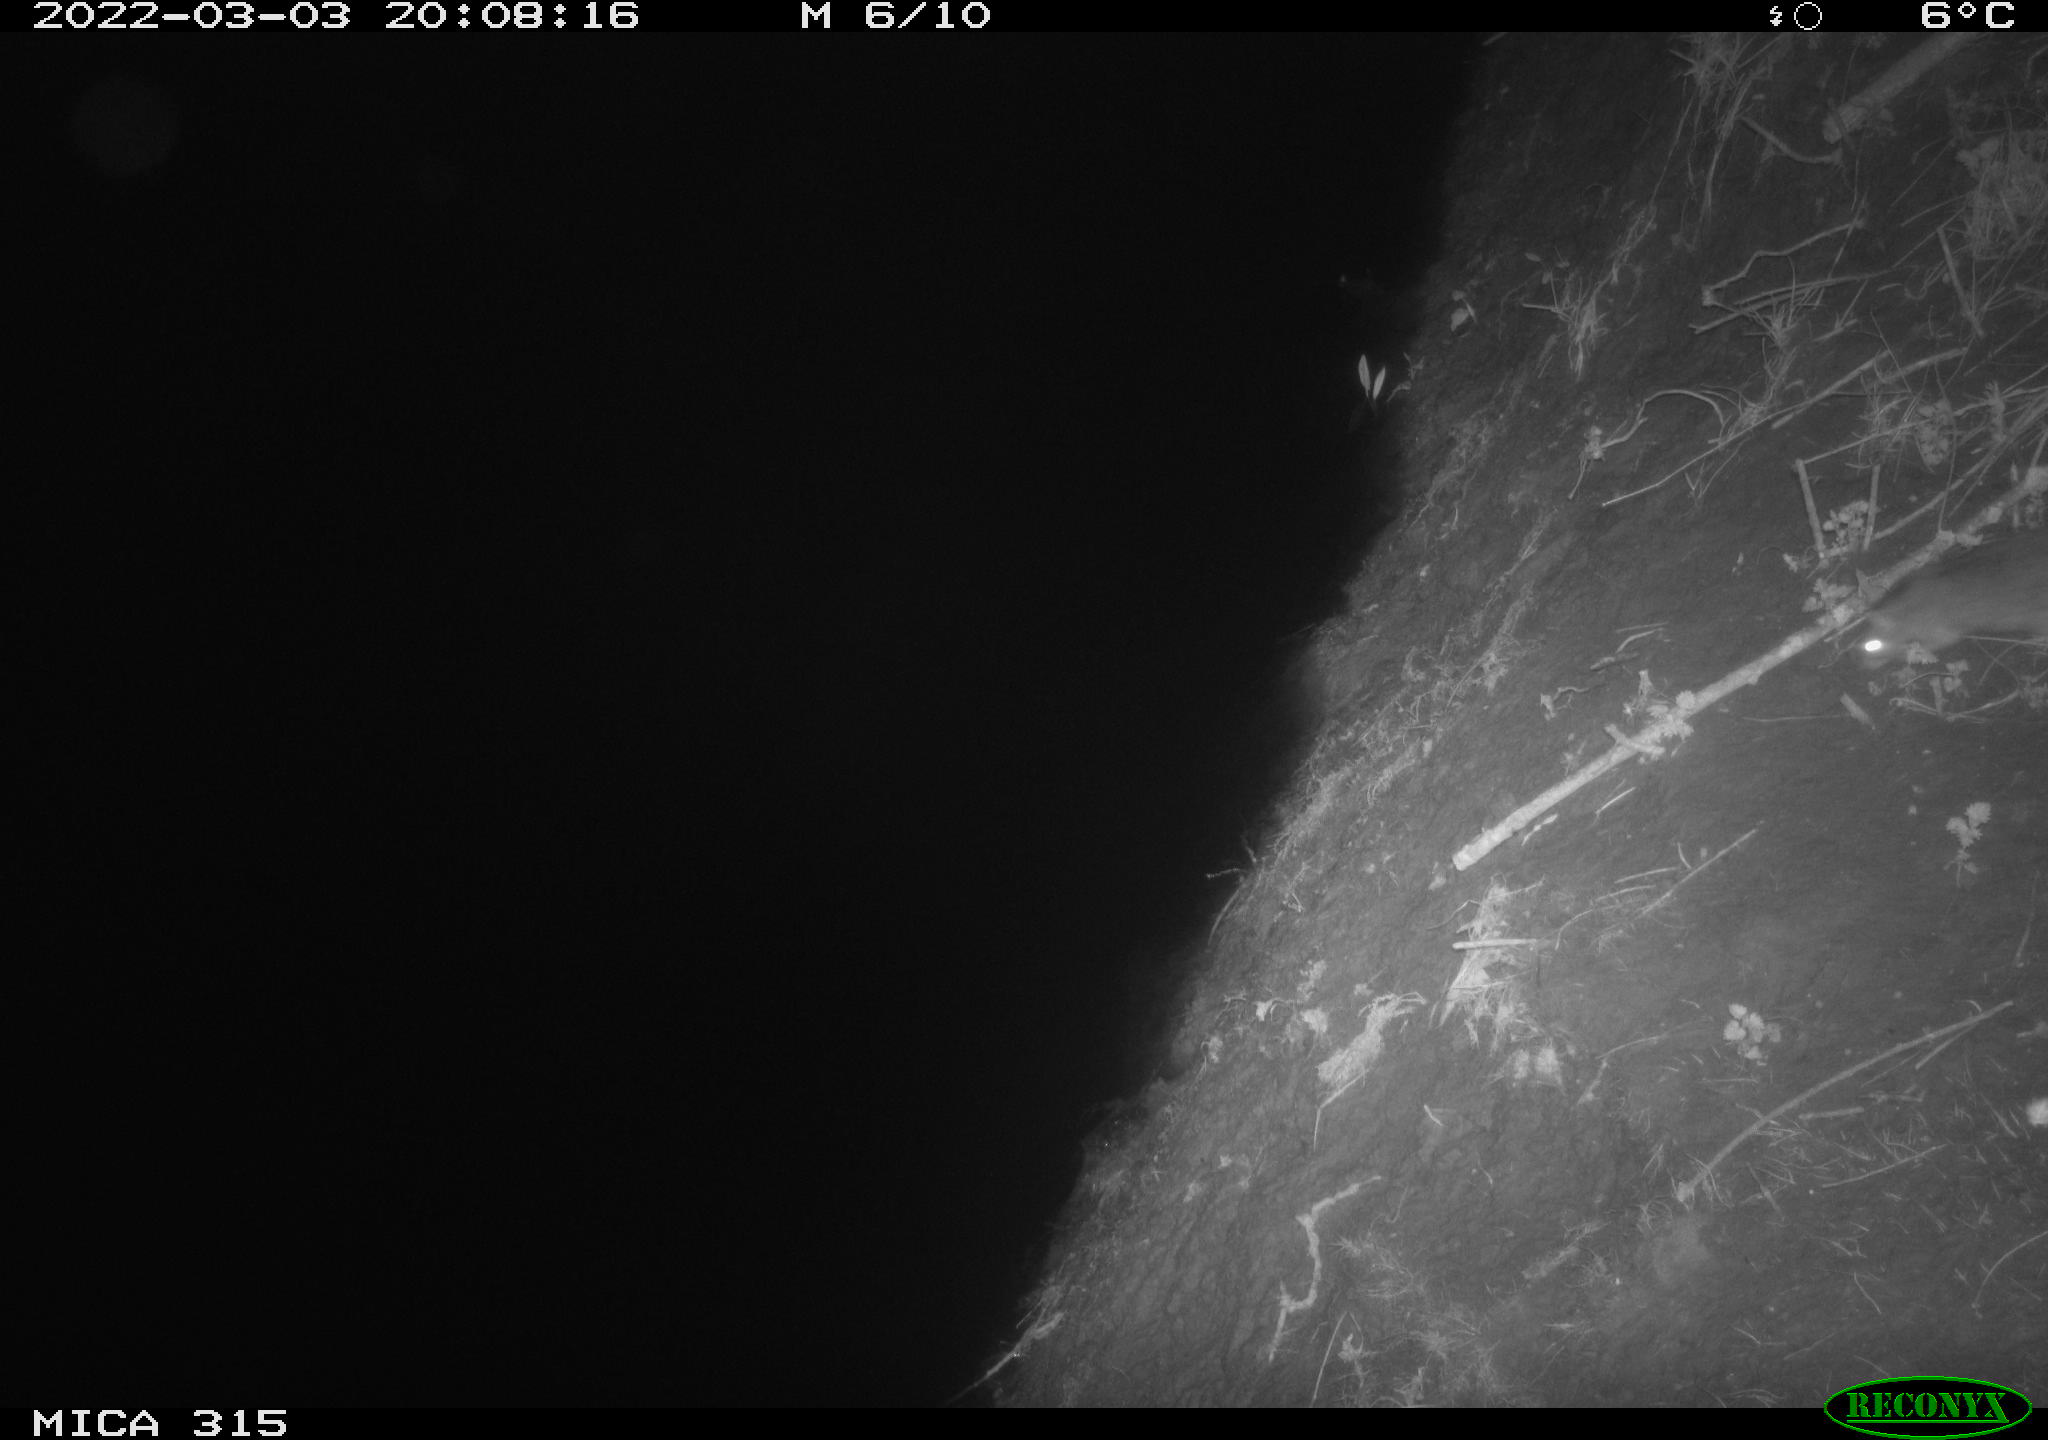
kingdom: Animalia
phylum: Chordata
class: Mammalia
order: Rodentia
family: Muridae
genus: Rattus
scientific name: Rattus norvegicus
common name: Brown rat
